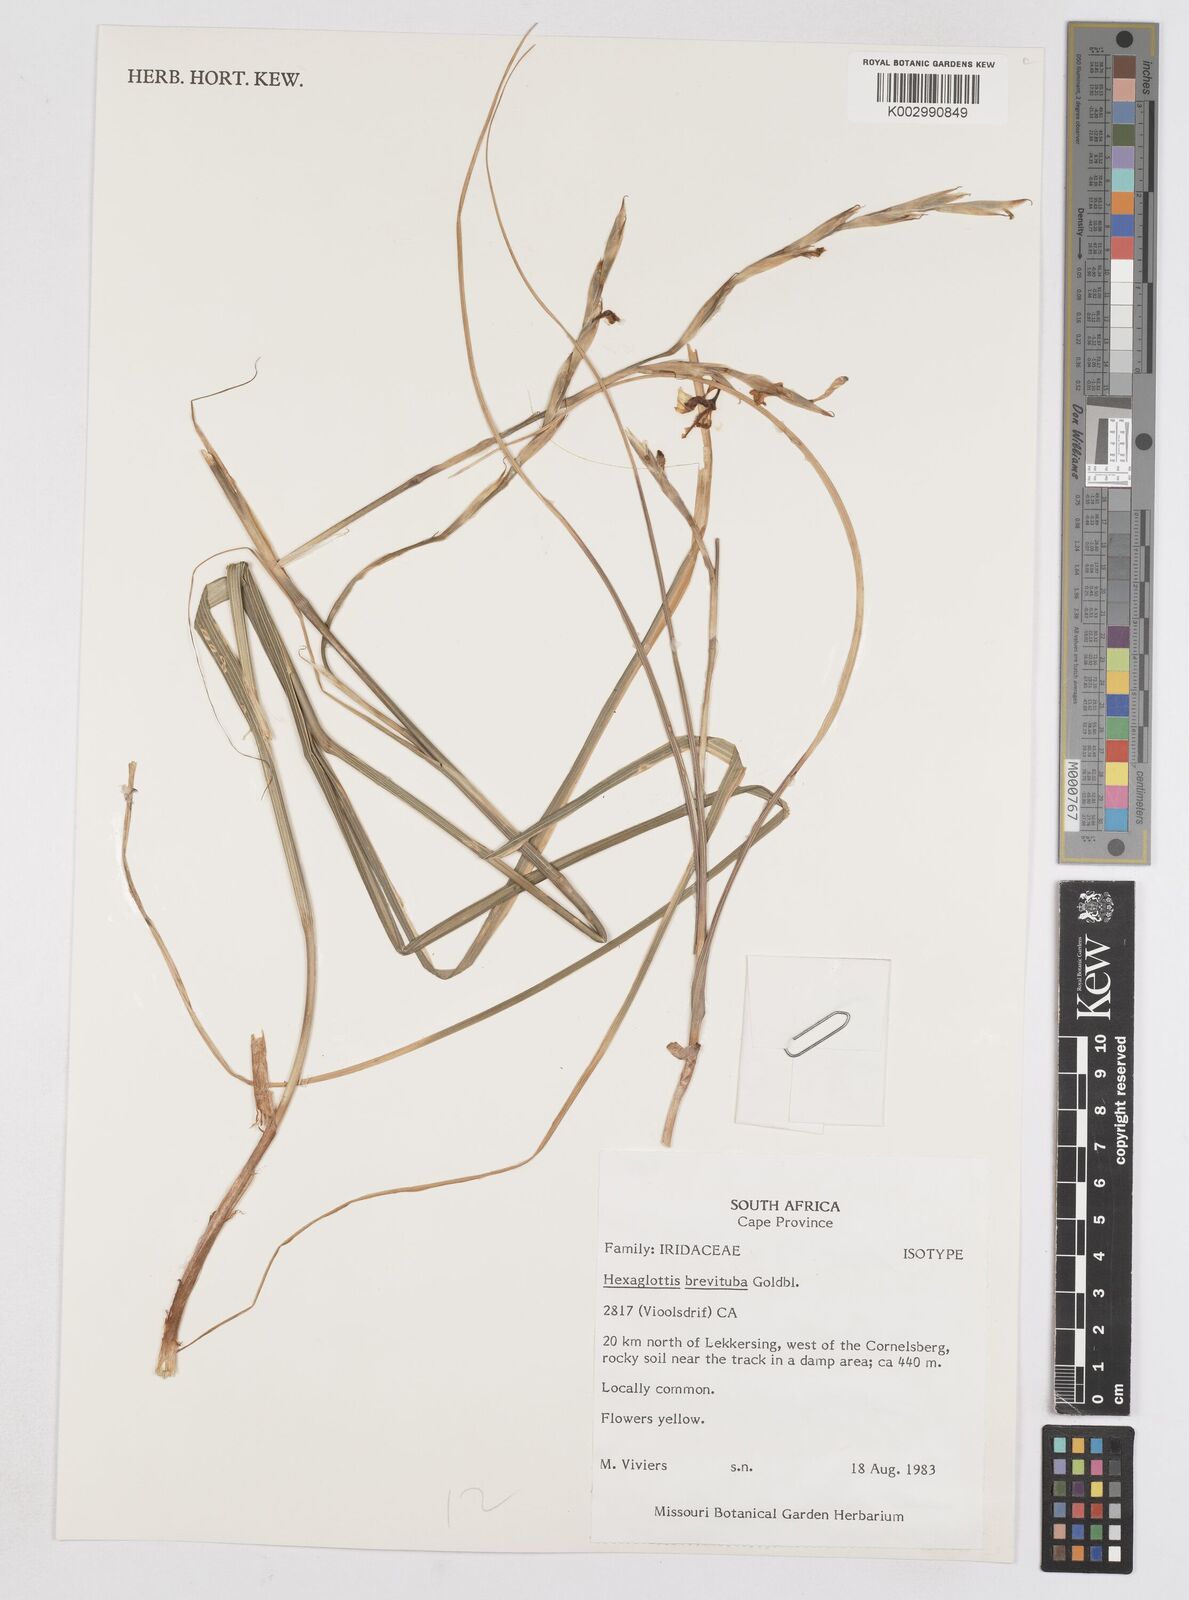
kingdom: Plantae
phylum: Tracheophyta
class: Liliopsida
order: Asparagales
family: Iridaceae
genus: Moraea
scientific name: Moraea brevituba
